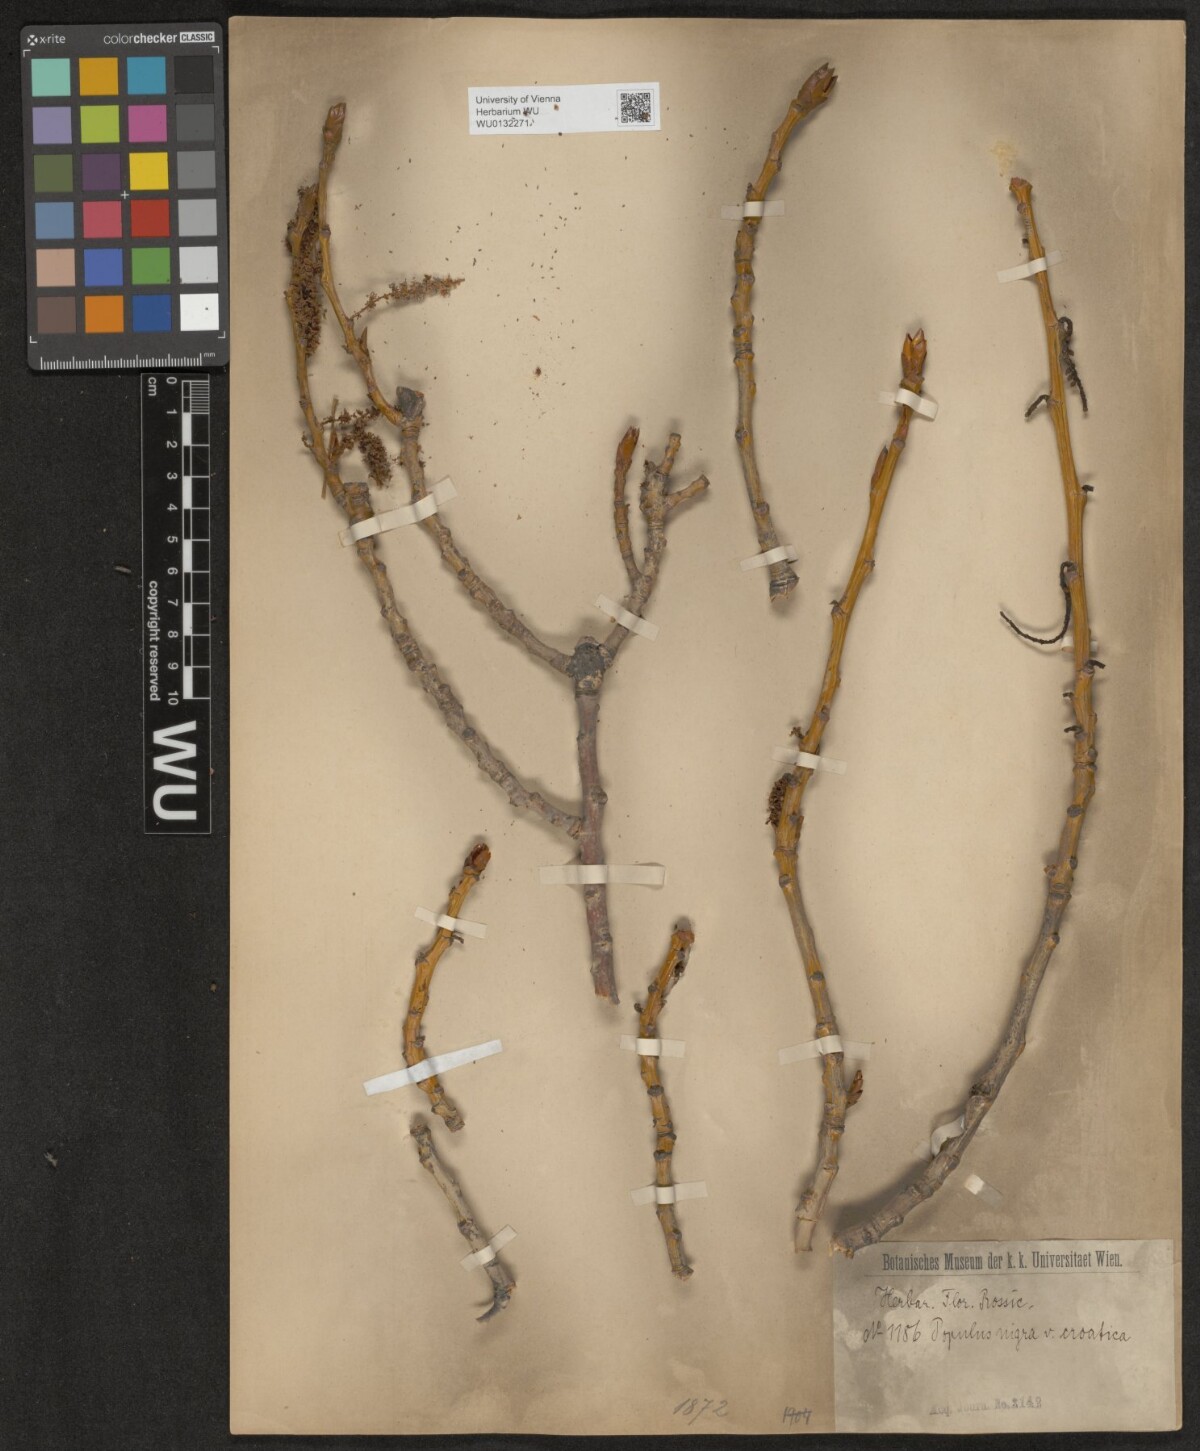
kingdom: Plantae
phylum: Tracheophyta
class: Magnoliopsida
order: Malpighiales
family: Salicaceae
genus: Populus
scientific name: Populus nigra
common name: Black poplar
